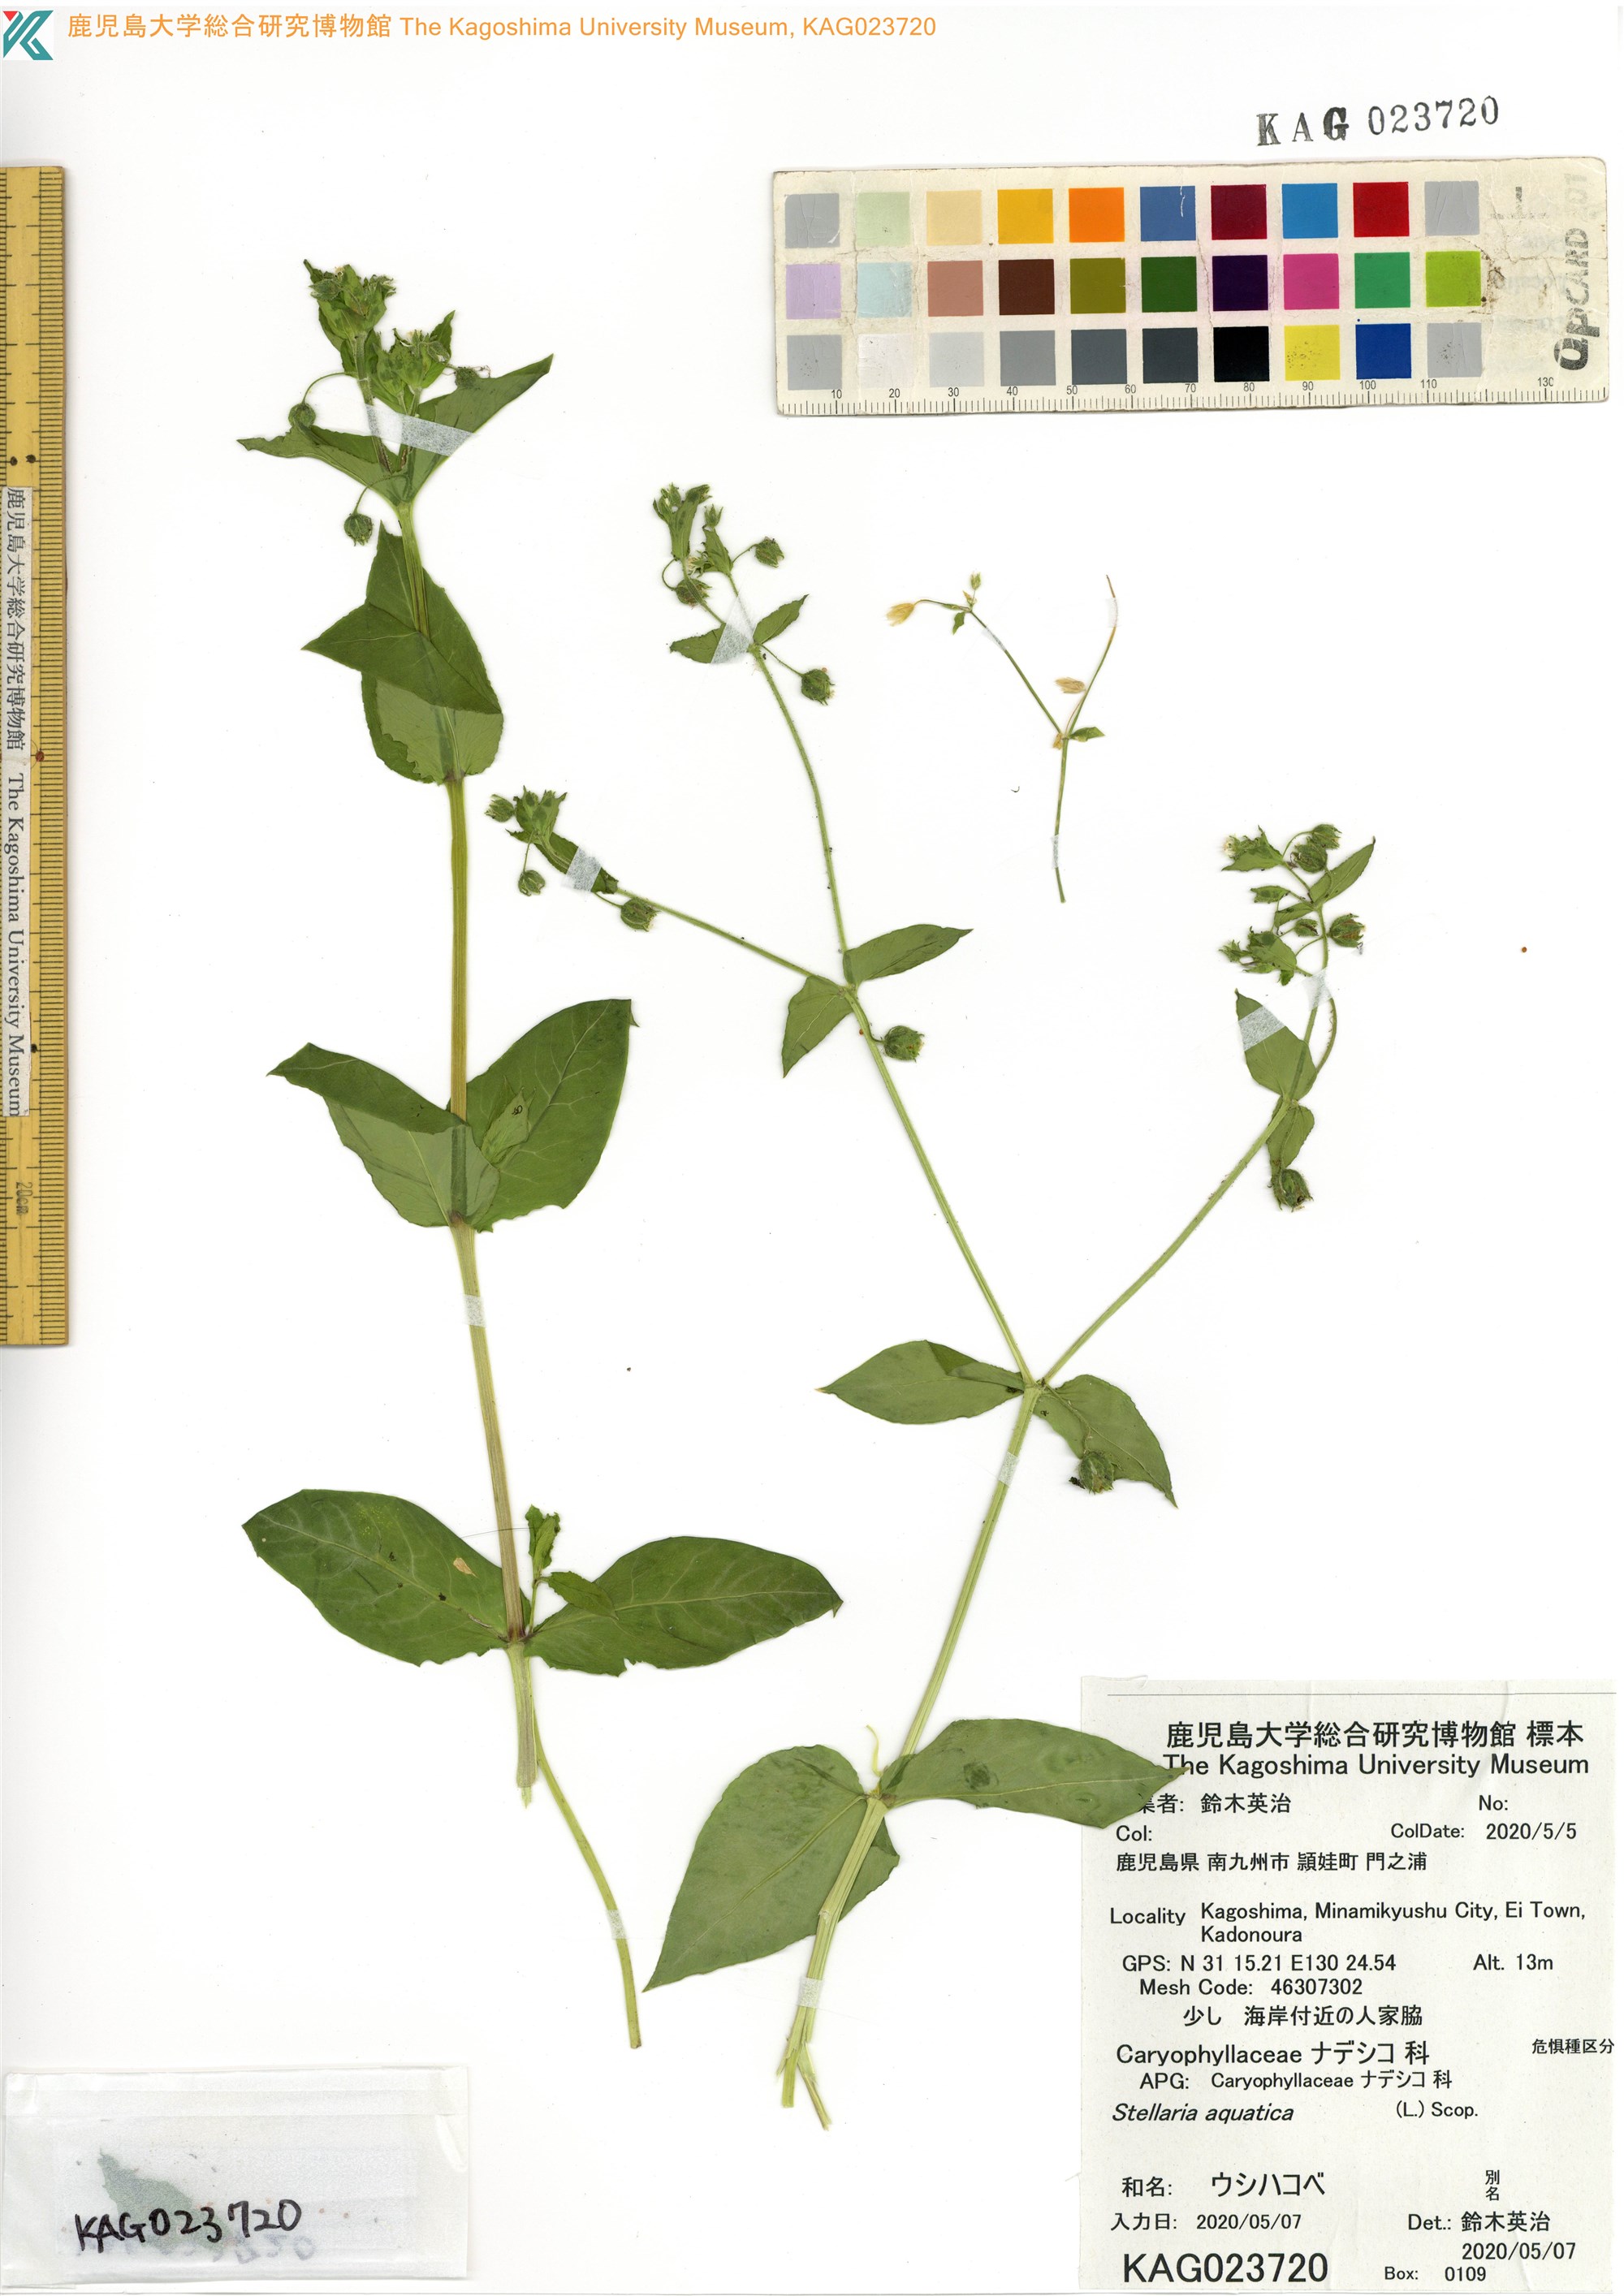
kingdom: Plantae
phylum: Tracheophyta
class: Magnoliopsida
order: Caryophyllales
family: Caryophyllaceae
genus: Stellaria
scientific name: Stellaria aquatica
